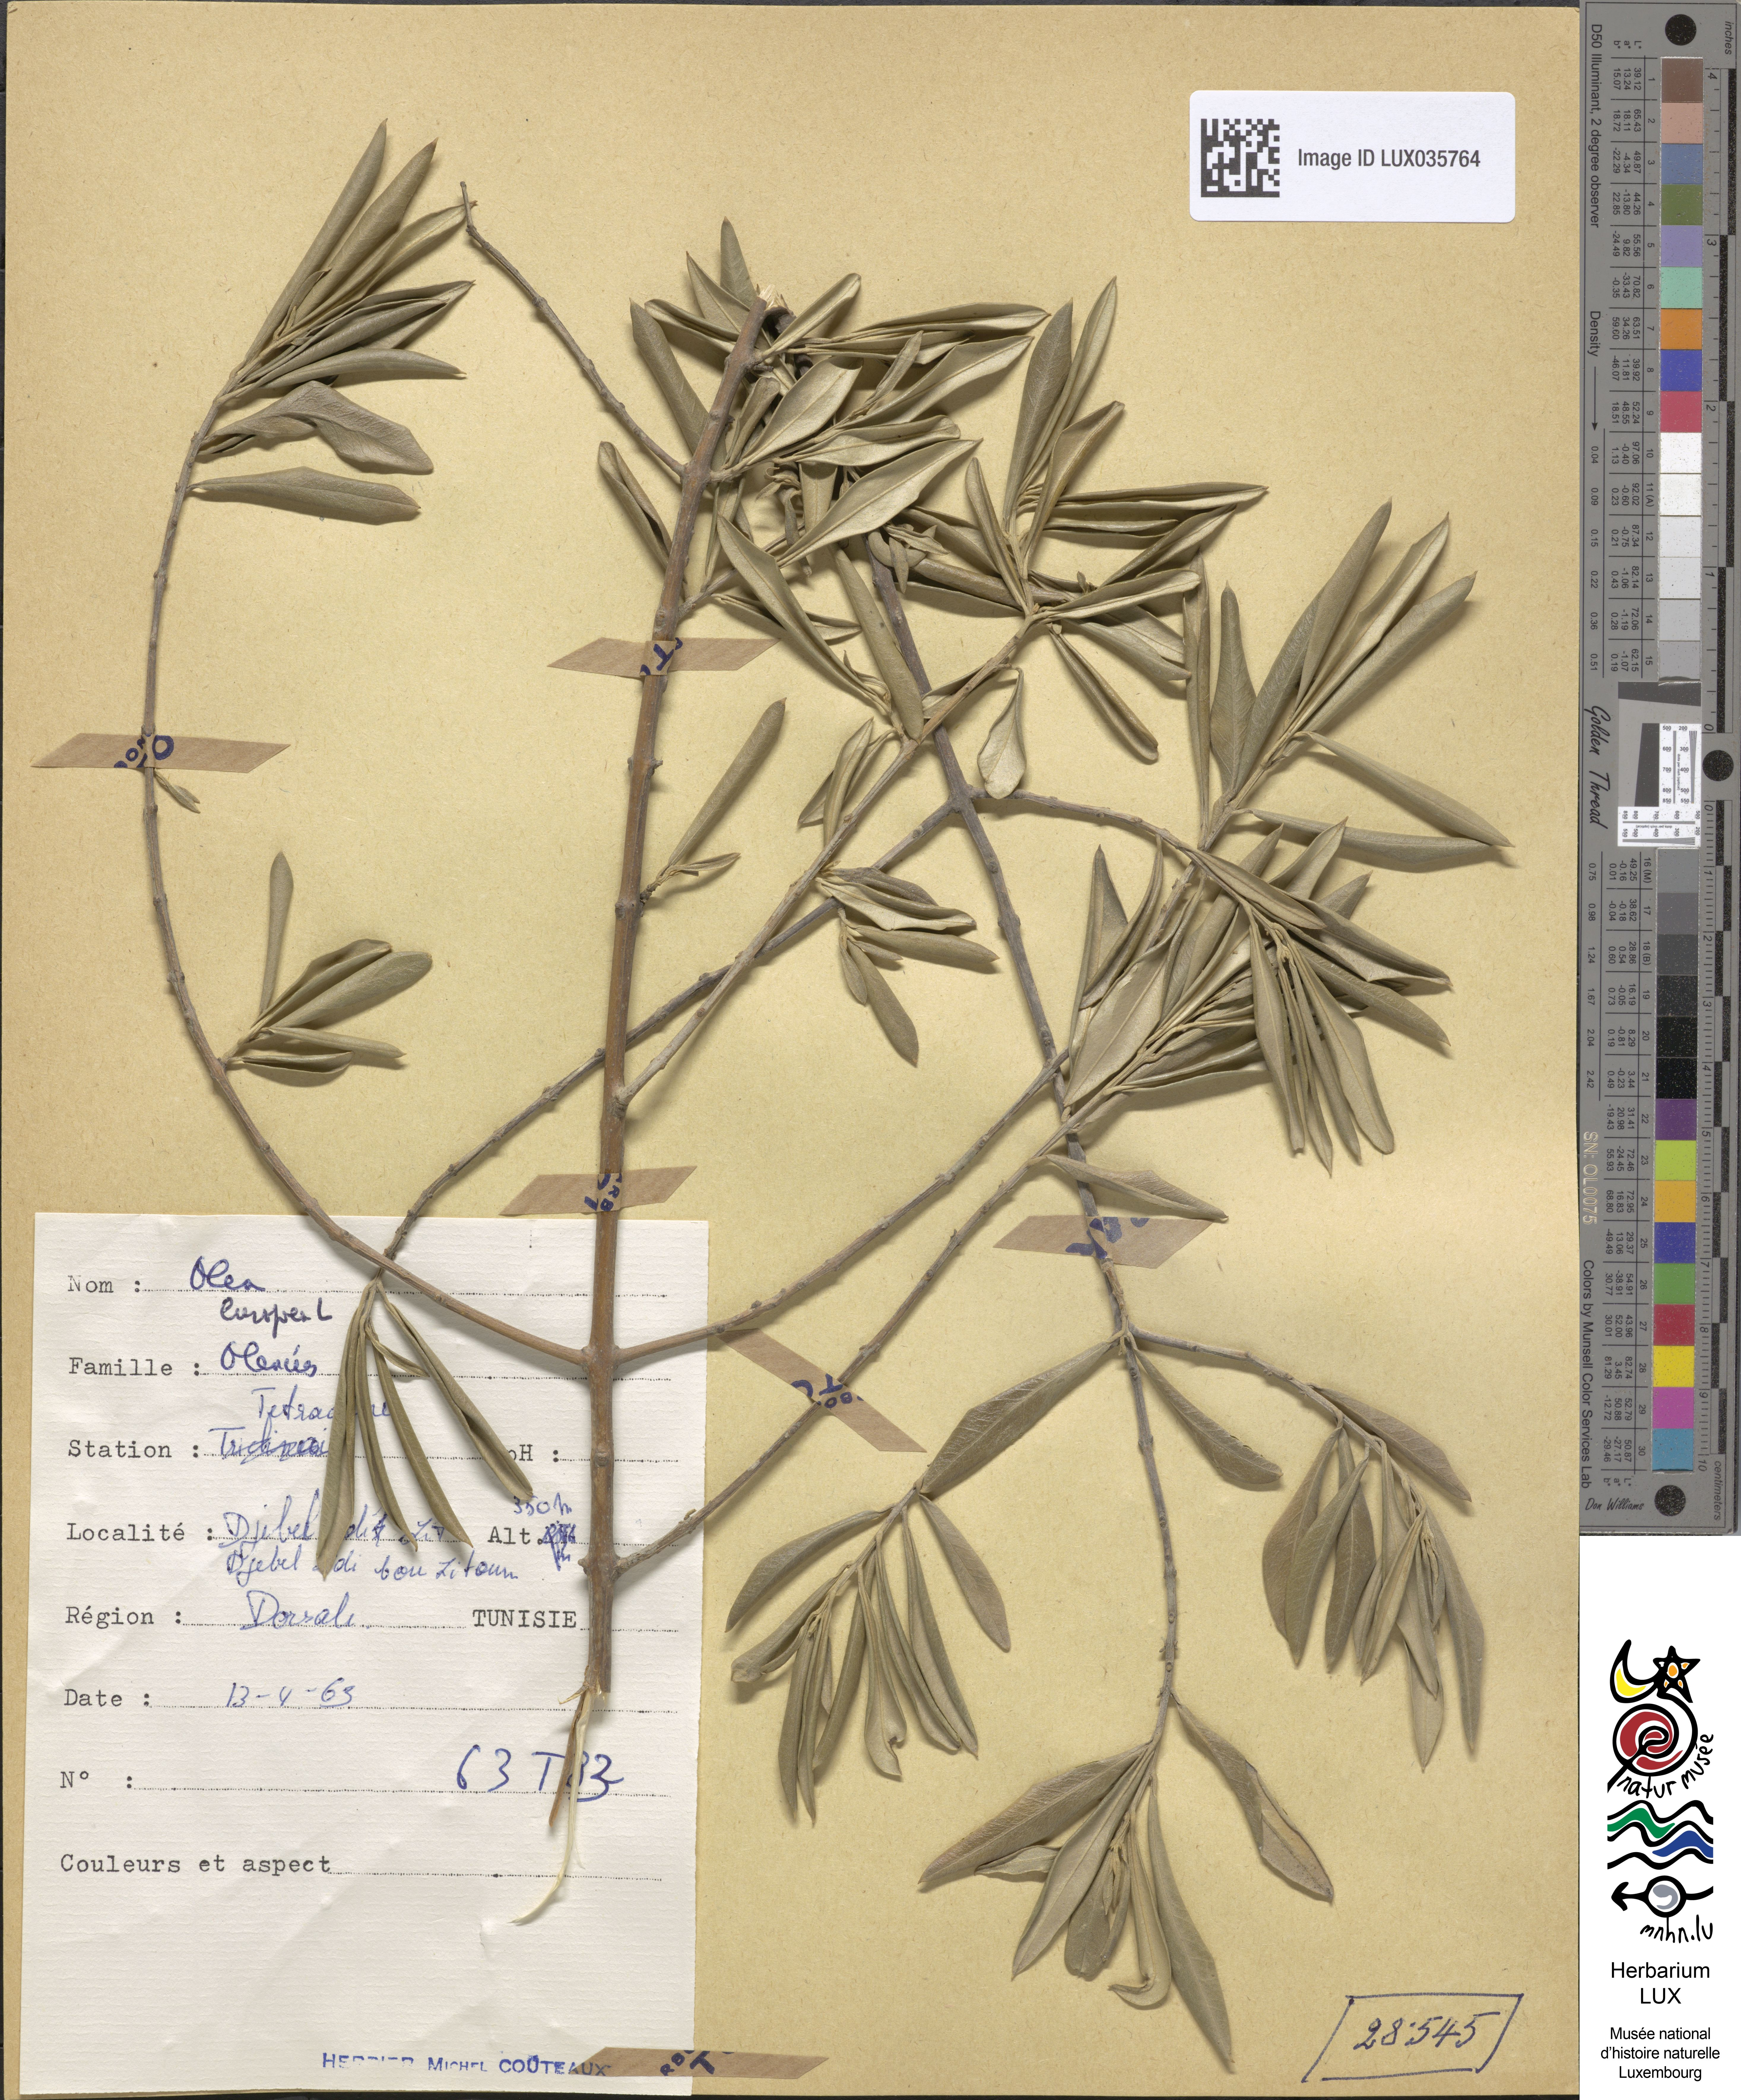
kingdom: Plantae
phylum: Tracheophyta
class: Magnoliopsida
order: Lamiales
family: Oleaceae
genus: Olea
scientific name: Olea europaea
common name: Olive
